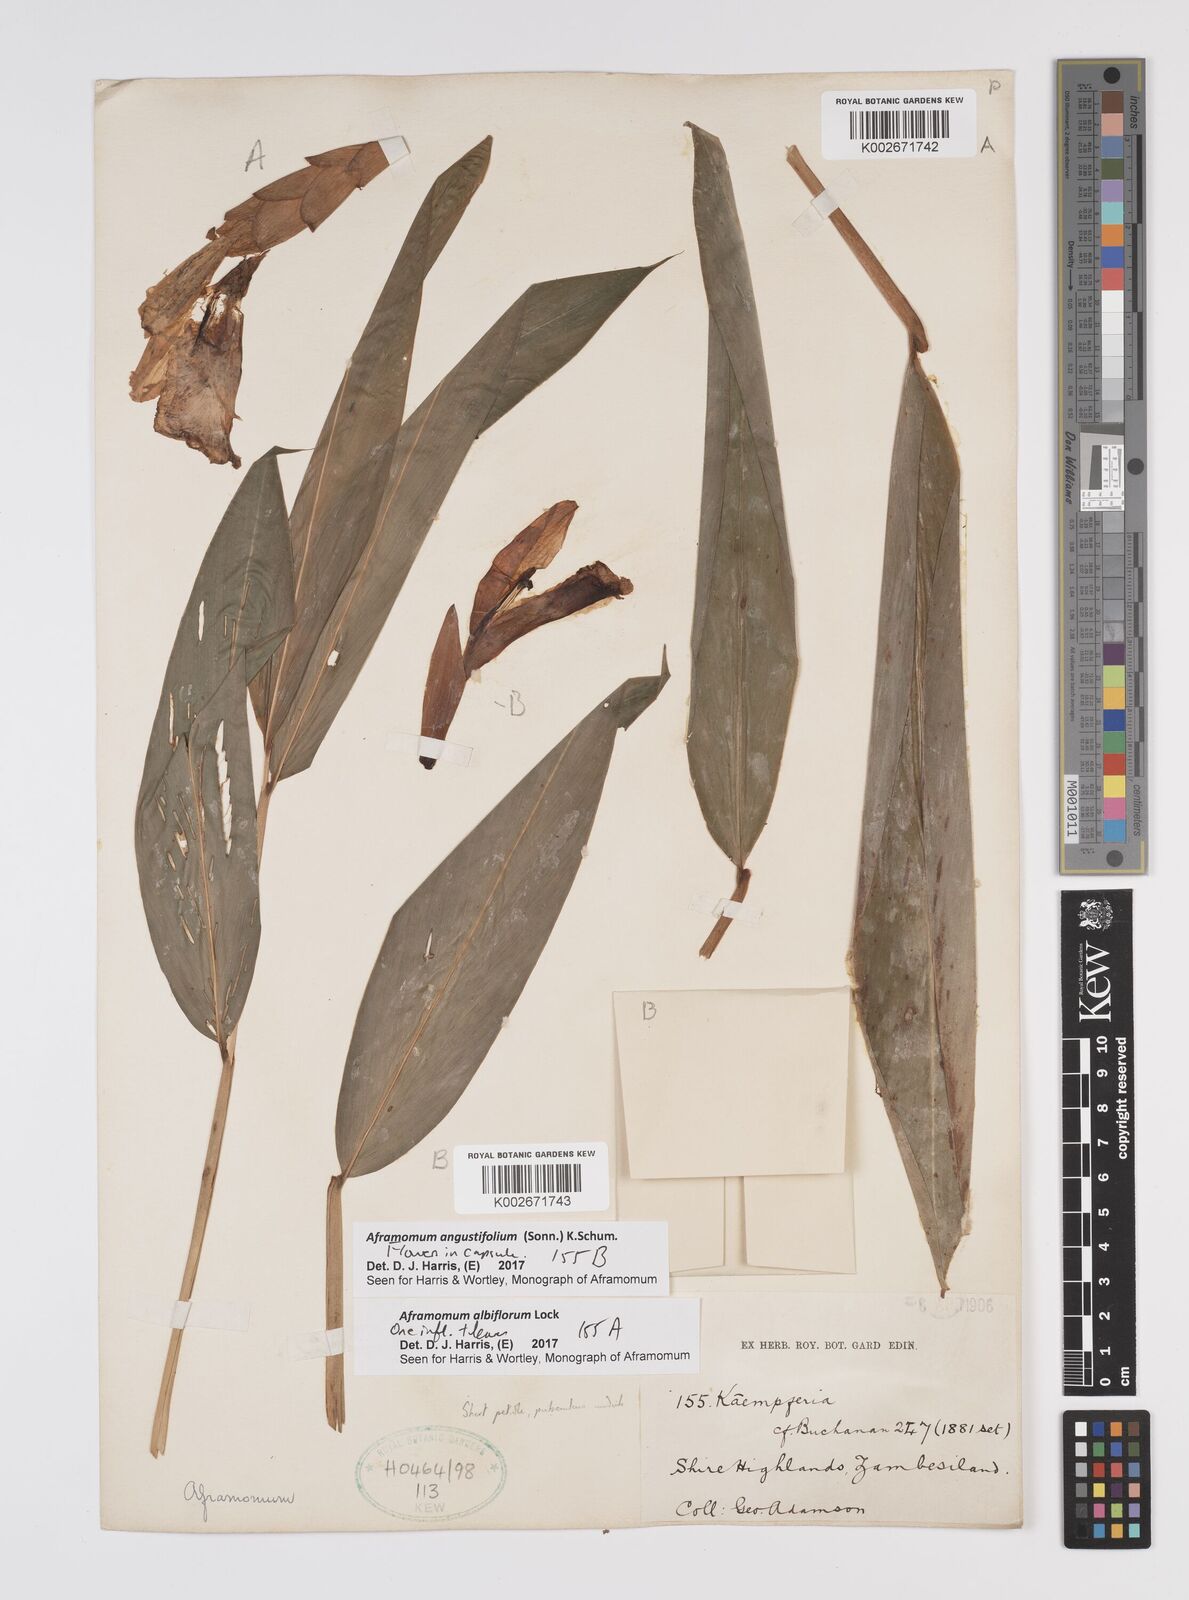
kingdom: Plantae
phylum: Tracheophyta
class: Liliopsida
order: Zingiberales
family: Zingiberaceae
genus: Aframomum
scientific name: Aframomum albiflorum
